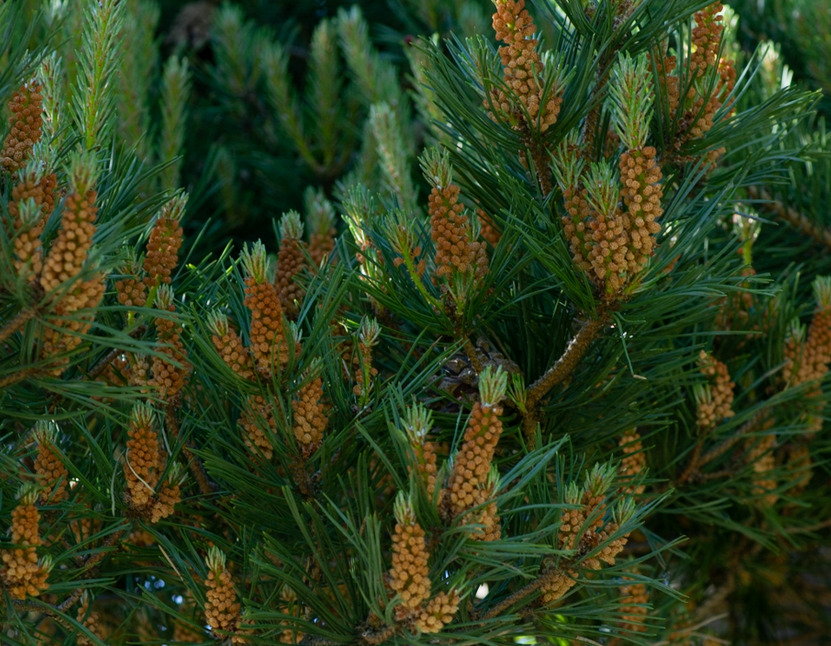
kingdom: Plantae
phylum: Tracheophyta
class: Pinopsida
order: Pinales
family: Pinaceae
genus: Pinus
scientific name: Pinus mugo
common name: Bjerg-fyr
